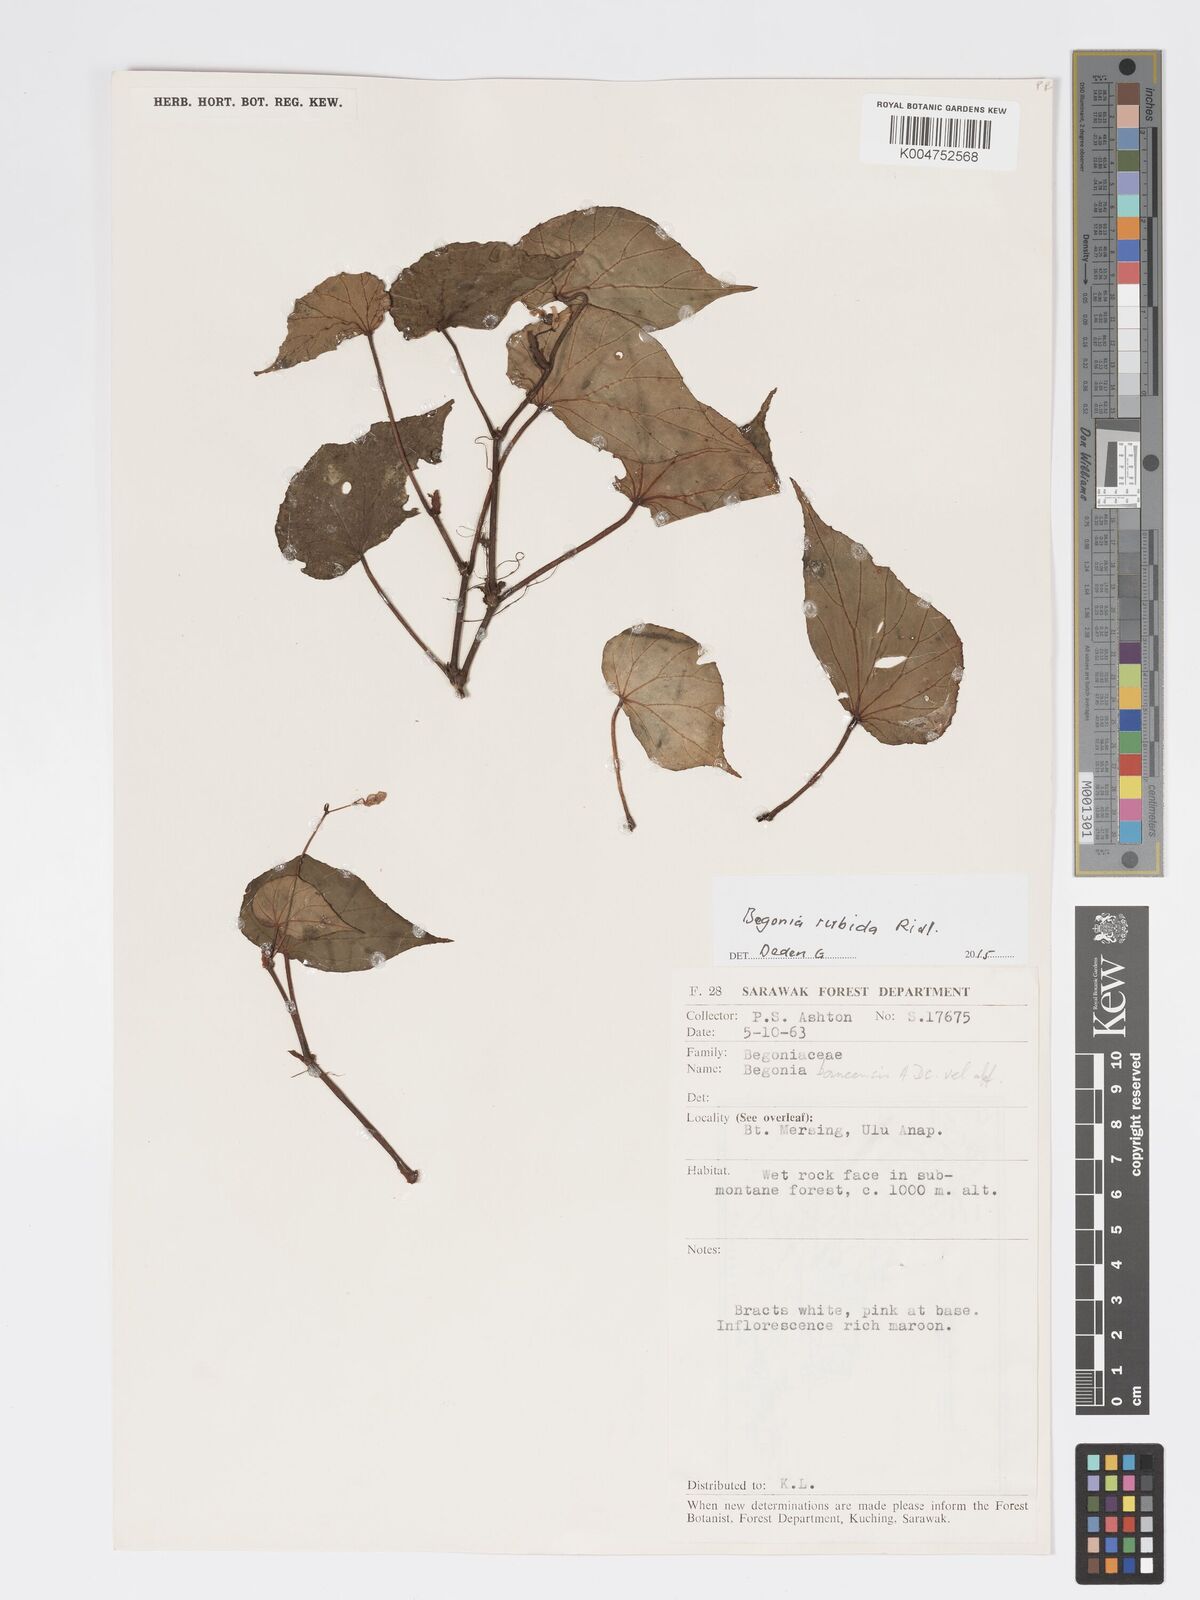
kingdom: Plantae
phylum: Tracheophyta
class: Magnoliopsida
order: Cucurbitales
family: Begoniaceae
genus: Begonia
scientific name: Begonia rubida
